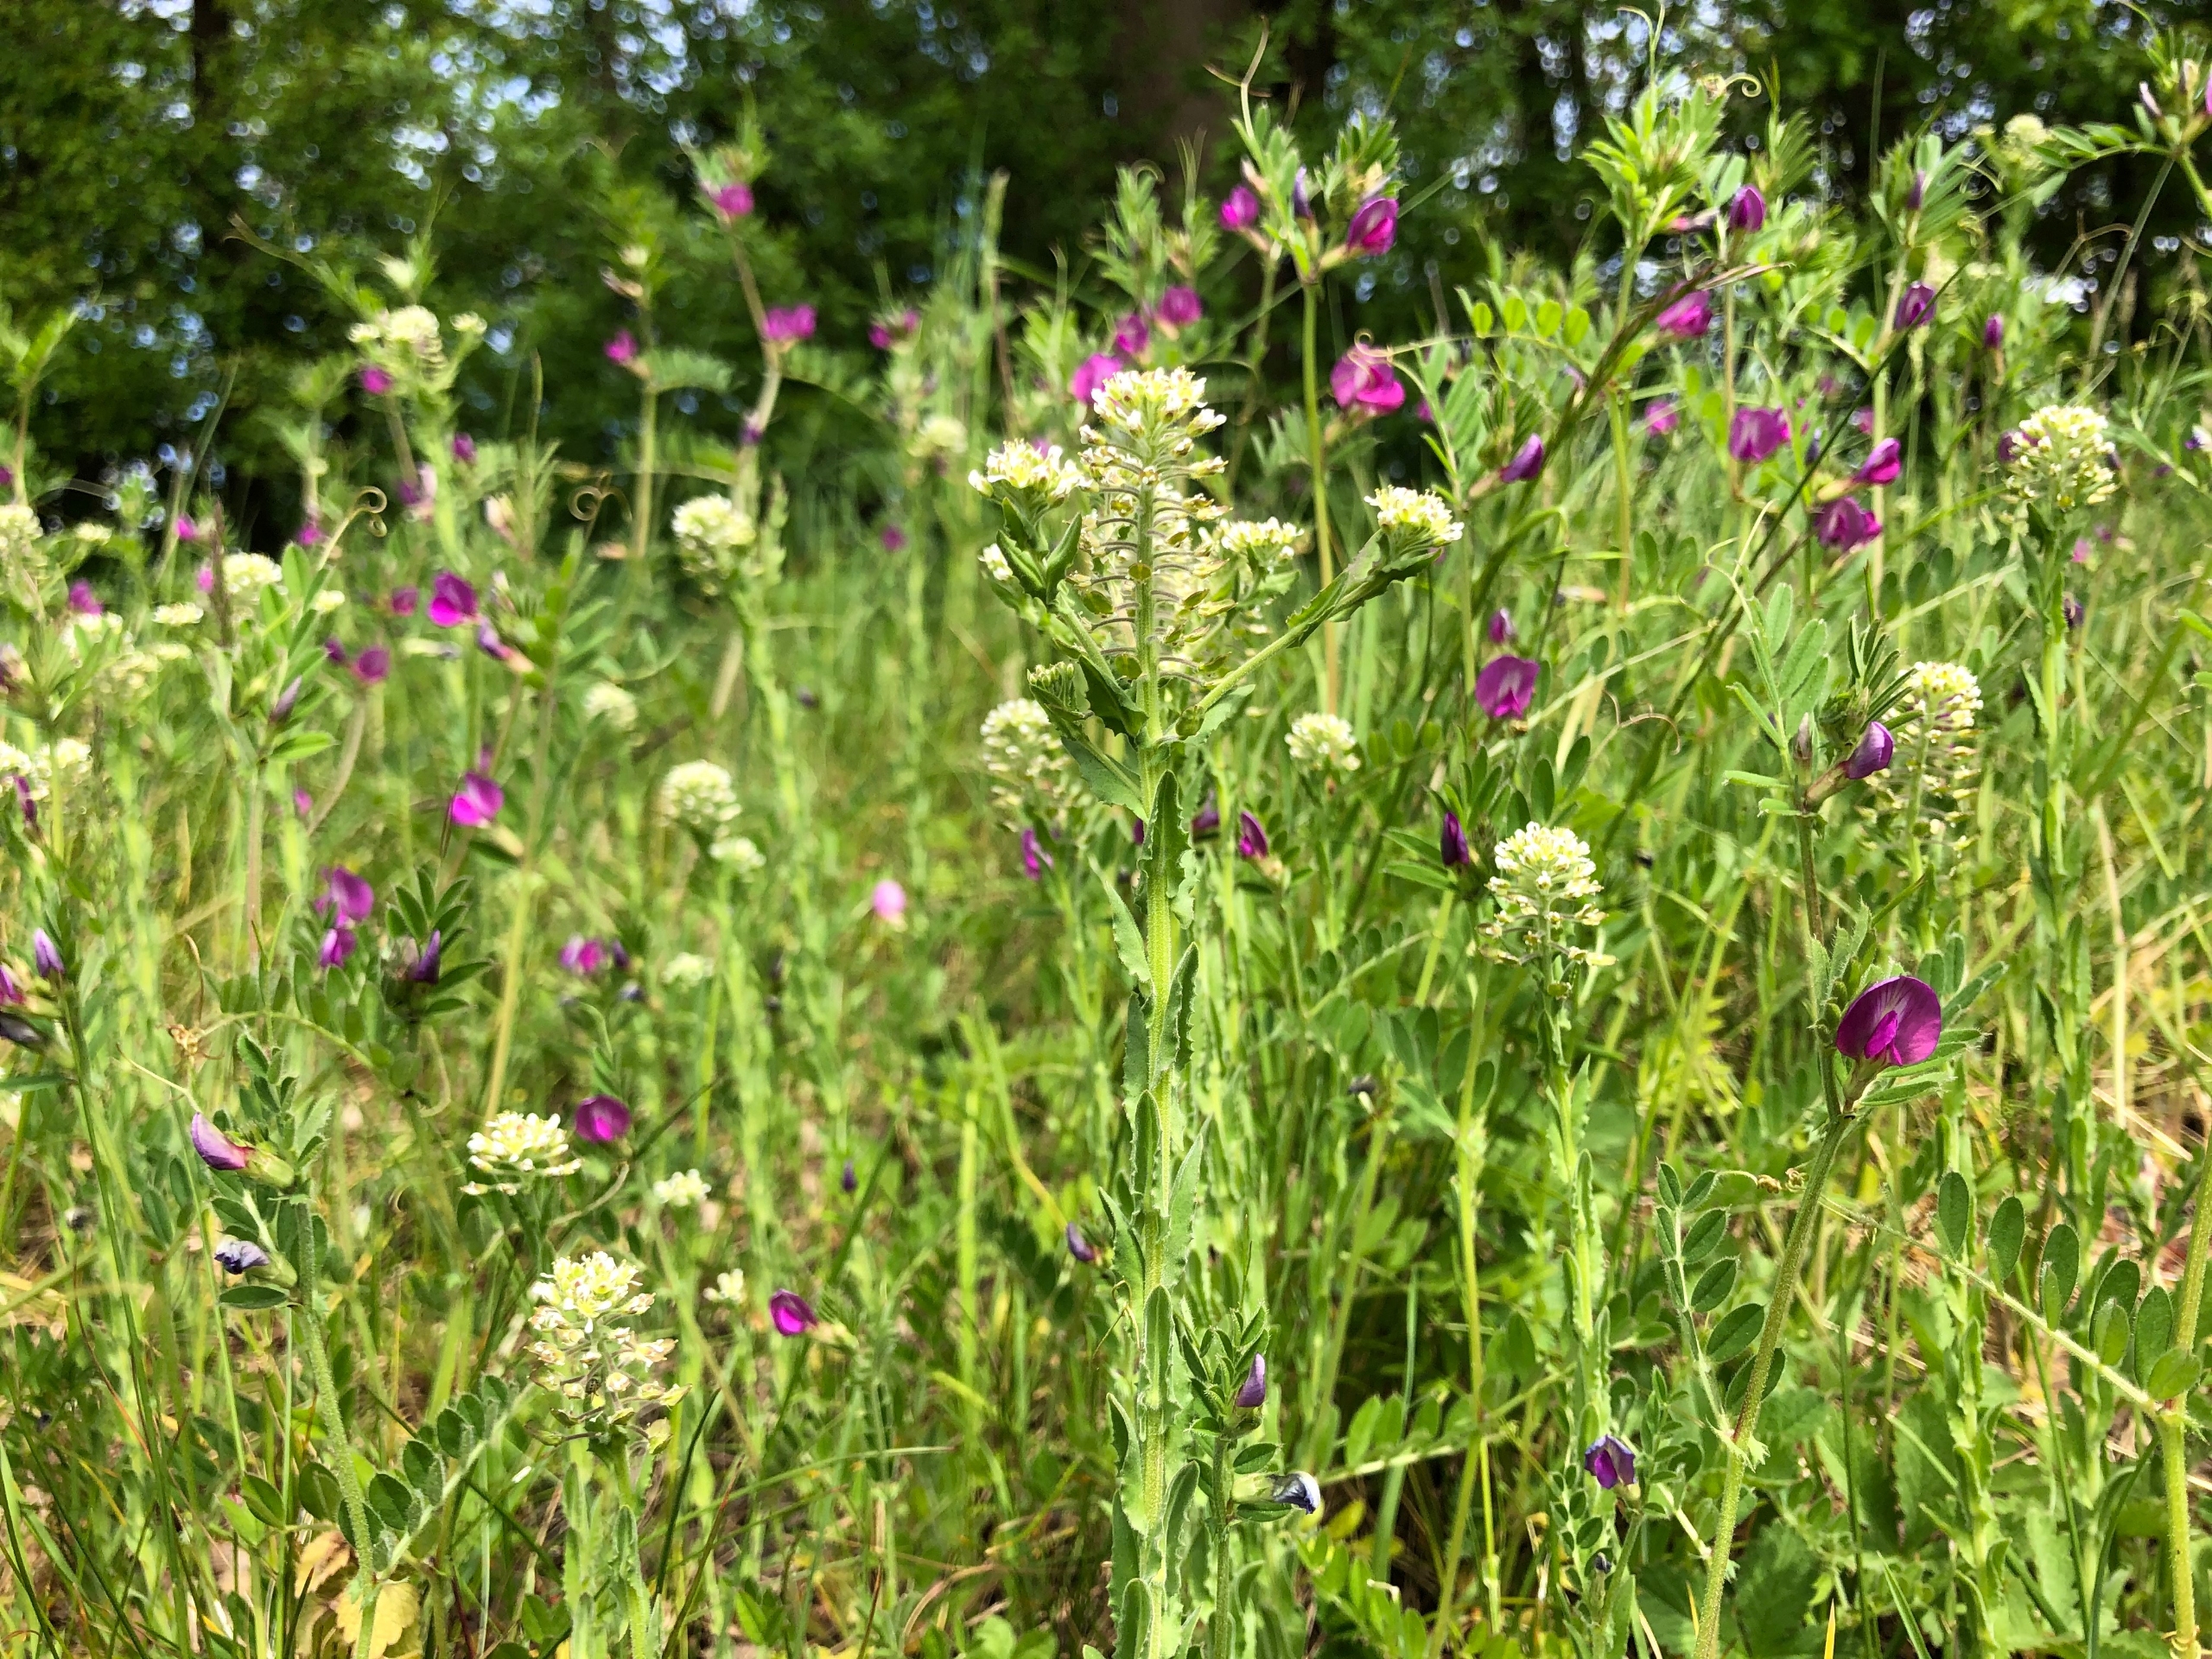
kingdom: Plantae
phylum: Tracheophyta
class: Magnoliopsida
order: Brassicales
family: Brassicaceae
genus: Lepidium
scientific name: Lepidium campestre
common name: Salomons lysestage
